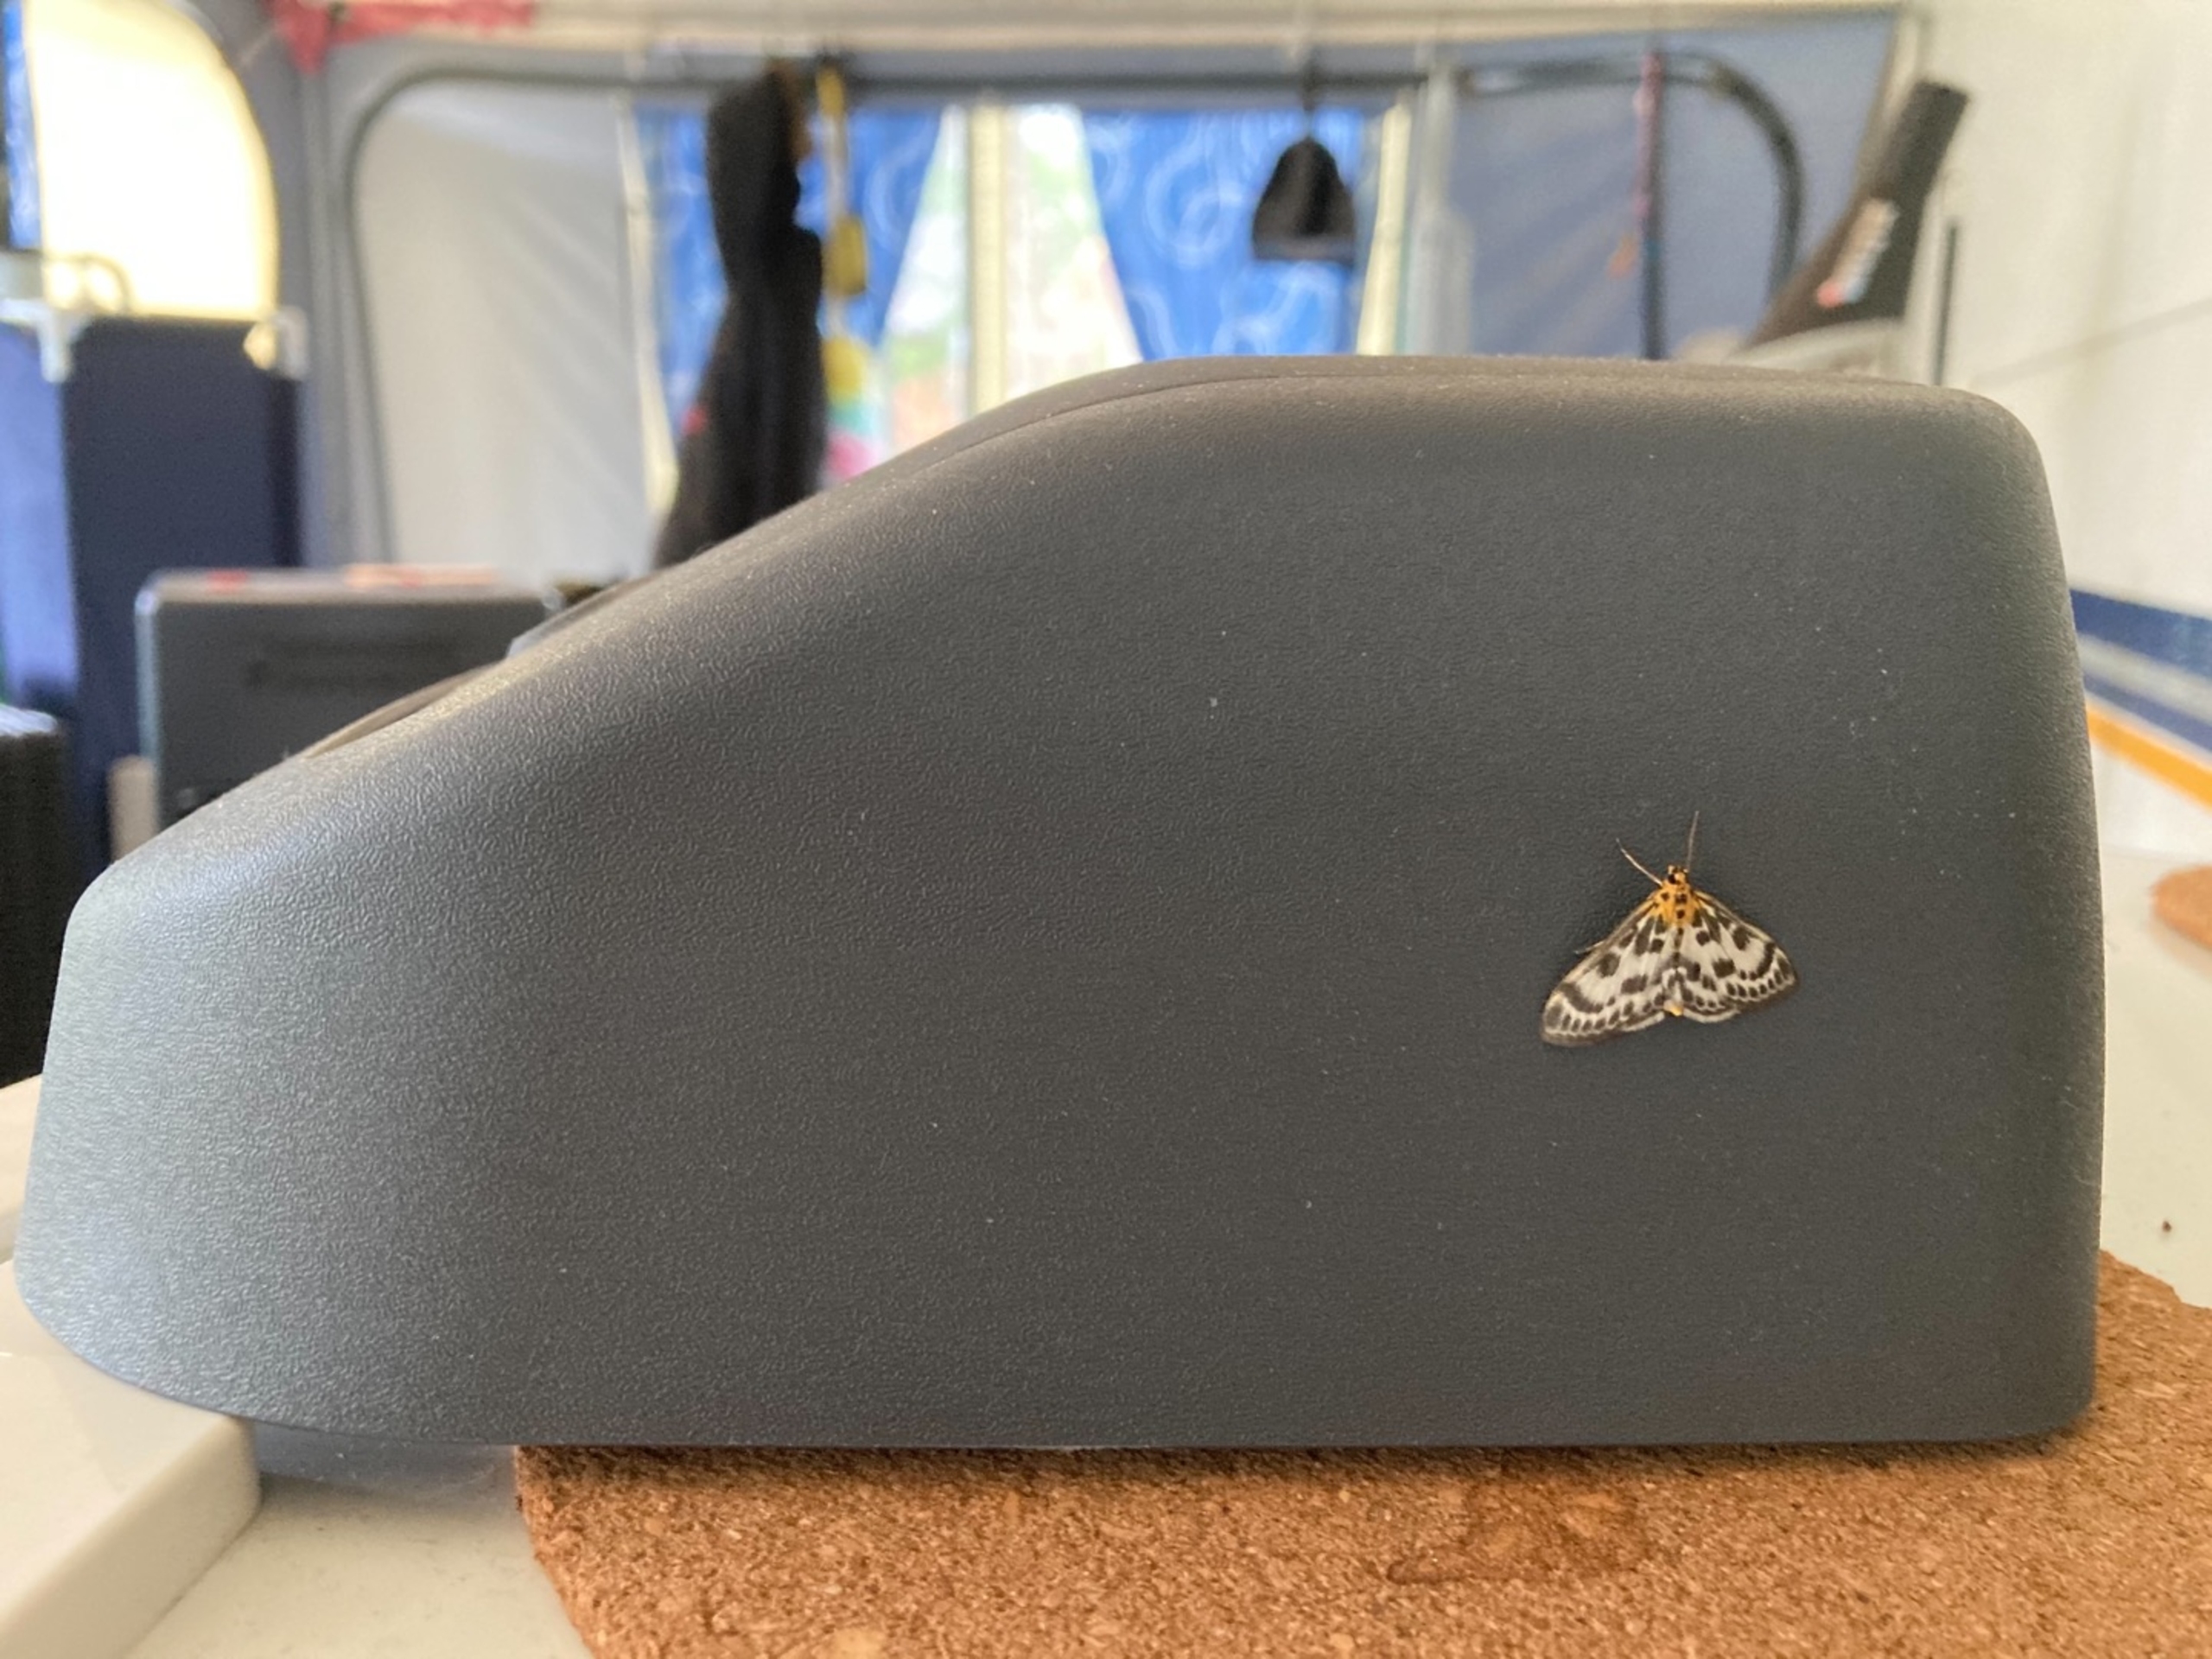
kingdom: Animalia
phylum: Arthropoda
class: Insecta
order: Lepidoptera
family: Crambidae
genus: Anania
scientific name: Anania hortulata
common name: Nældehalvmøl
